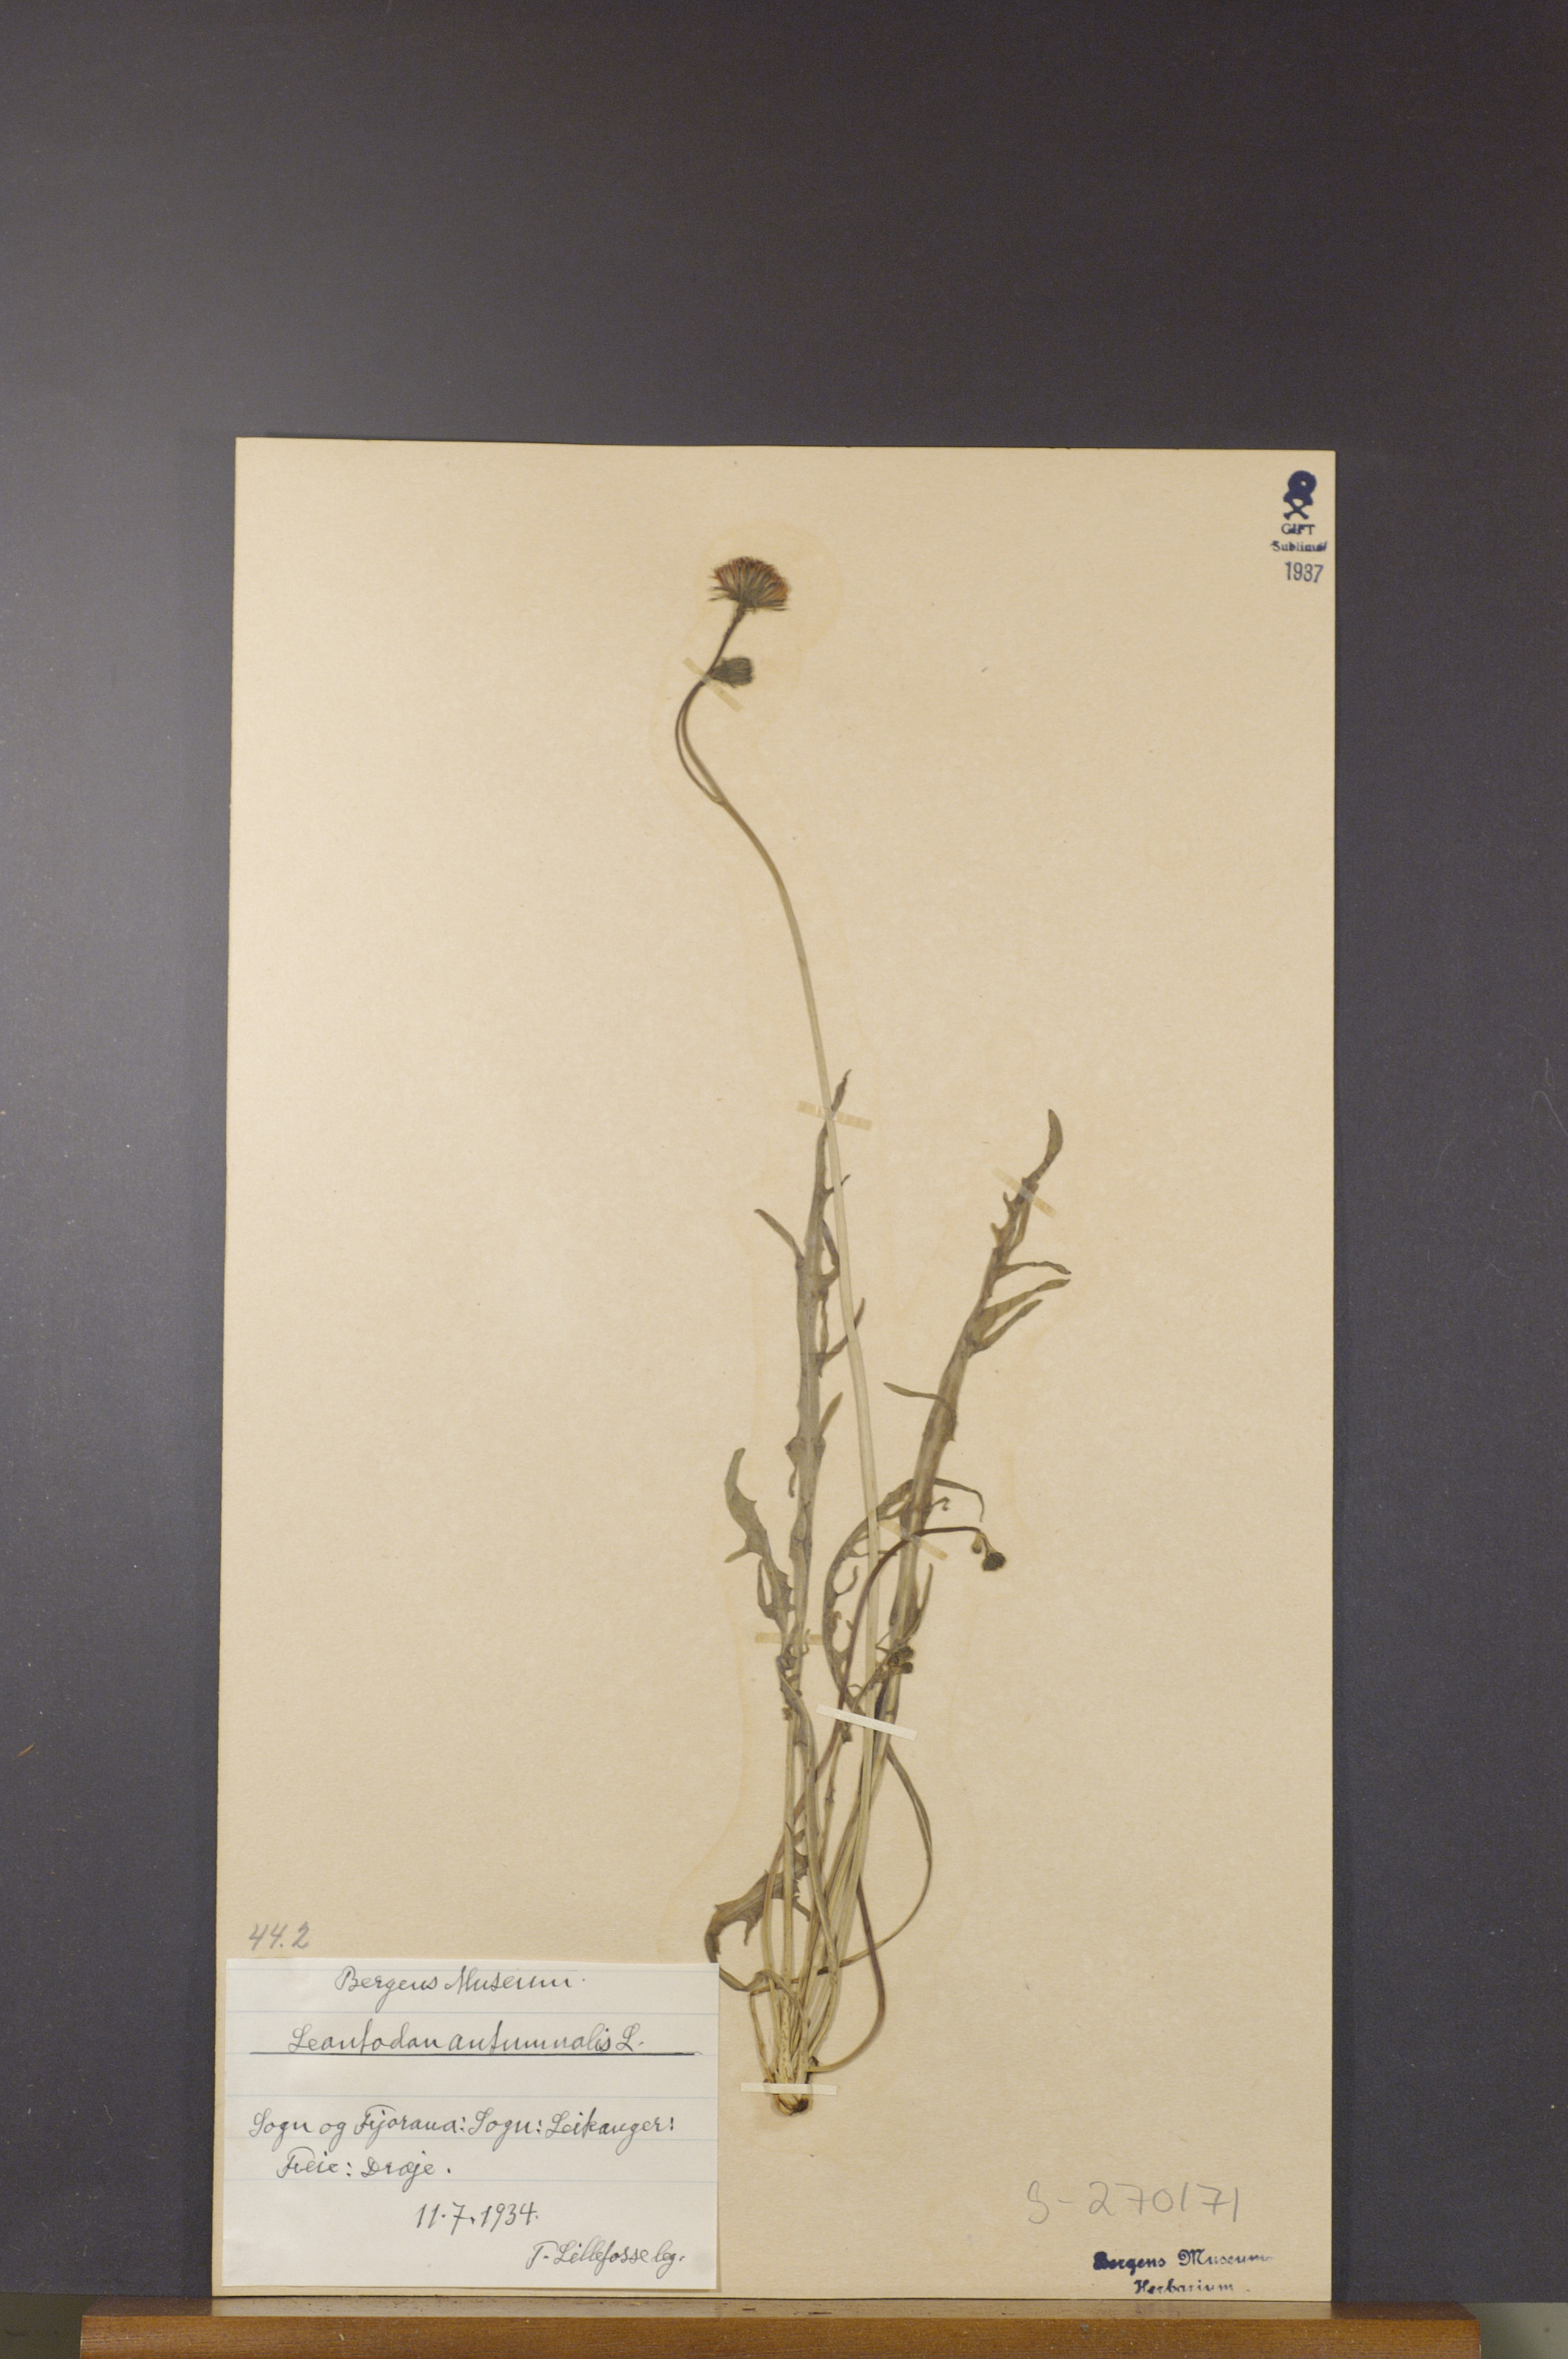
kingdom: Plantae
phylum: Tracheophyta
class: Magnoliopsida
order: Asterales
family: Asteraceae
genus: Scorzoneroides
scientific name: Scorzoneroides autumnalis
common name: Autumn hawkbit
